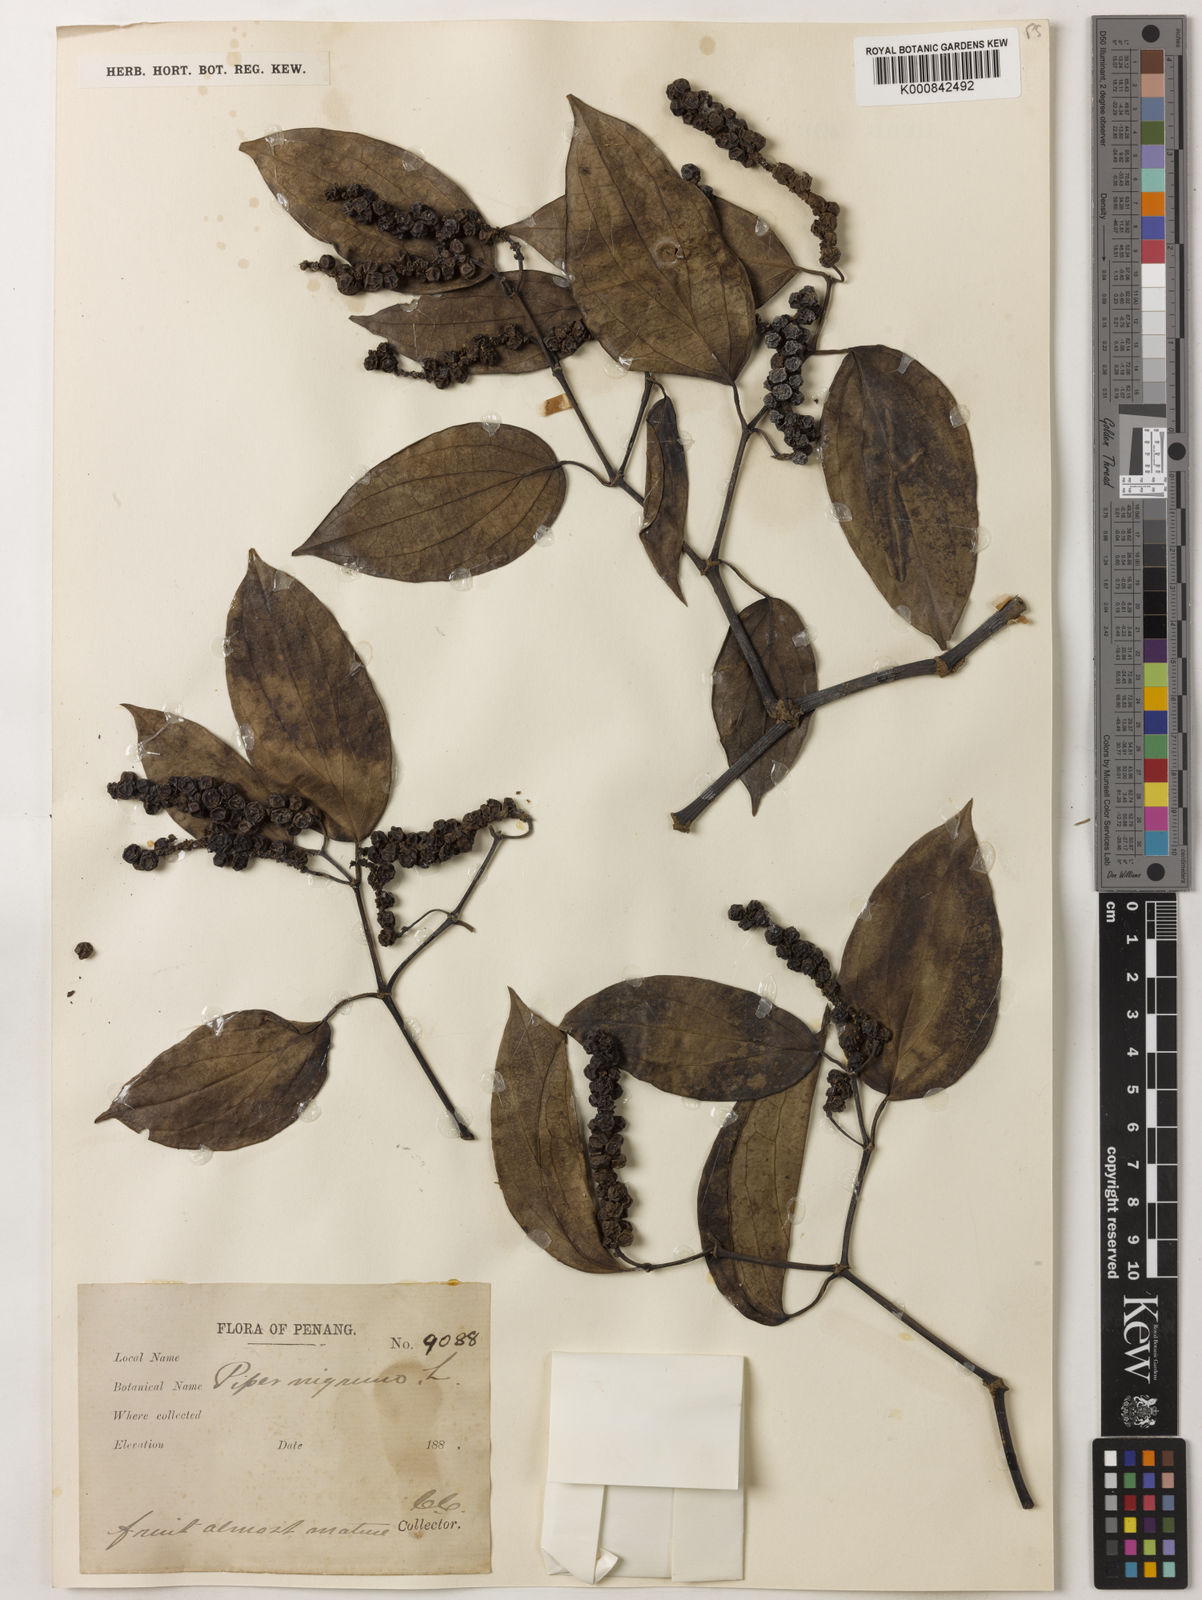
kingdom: Plantae
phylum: Tracheophyta
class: Magnoliopsida
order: Piperales
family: Piperaceae
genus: Piper
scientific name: Piper nigrum
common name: Black pepper
